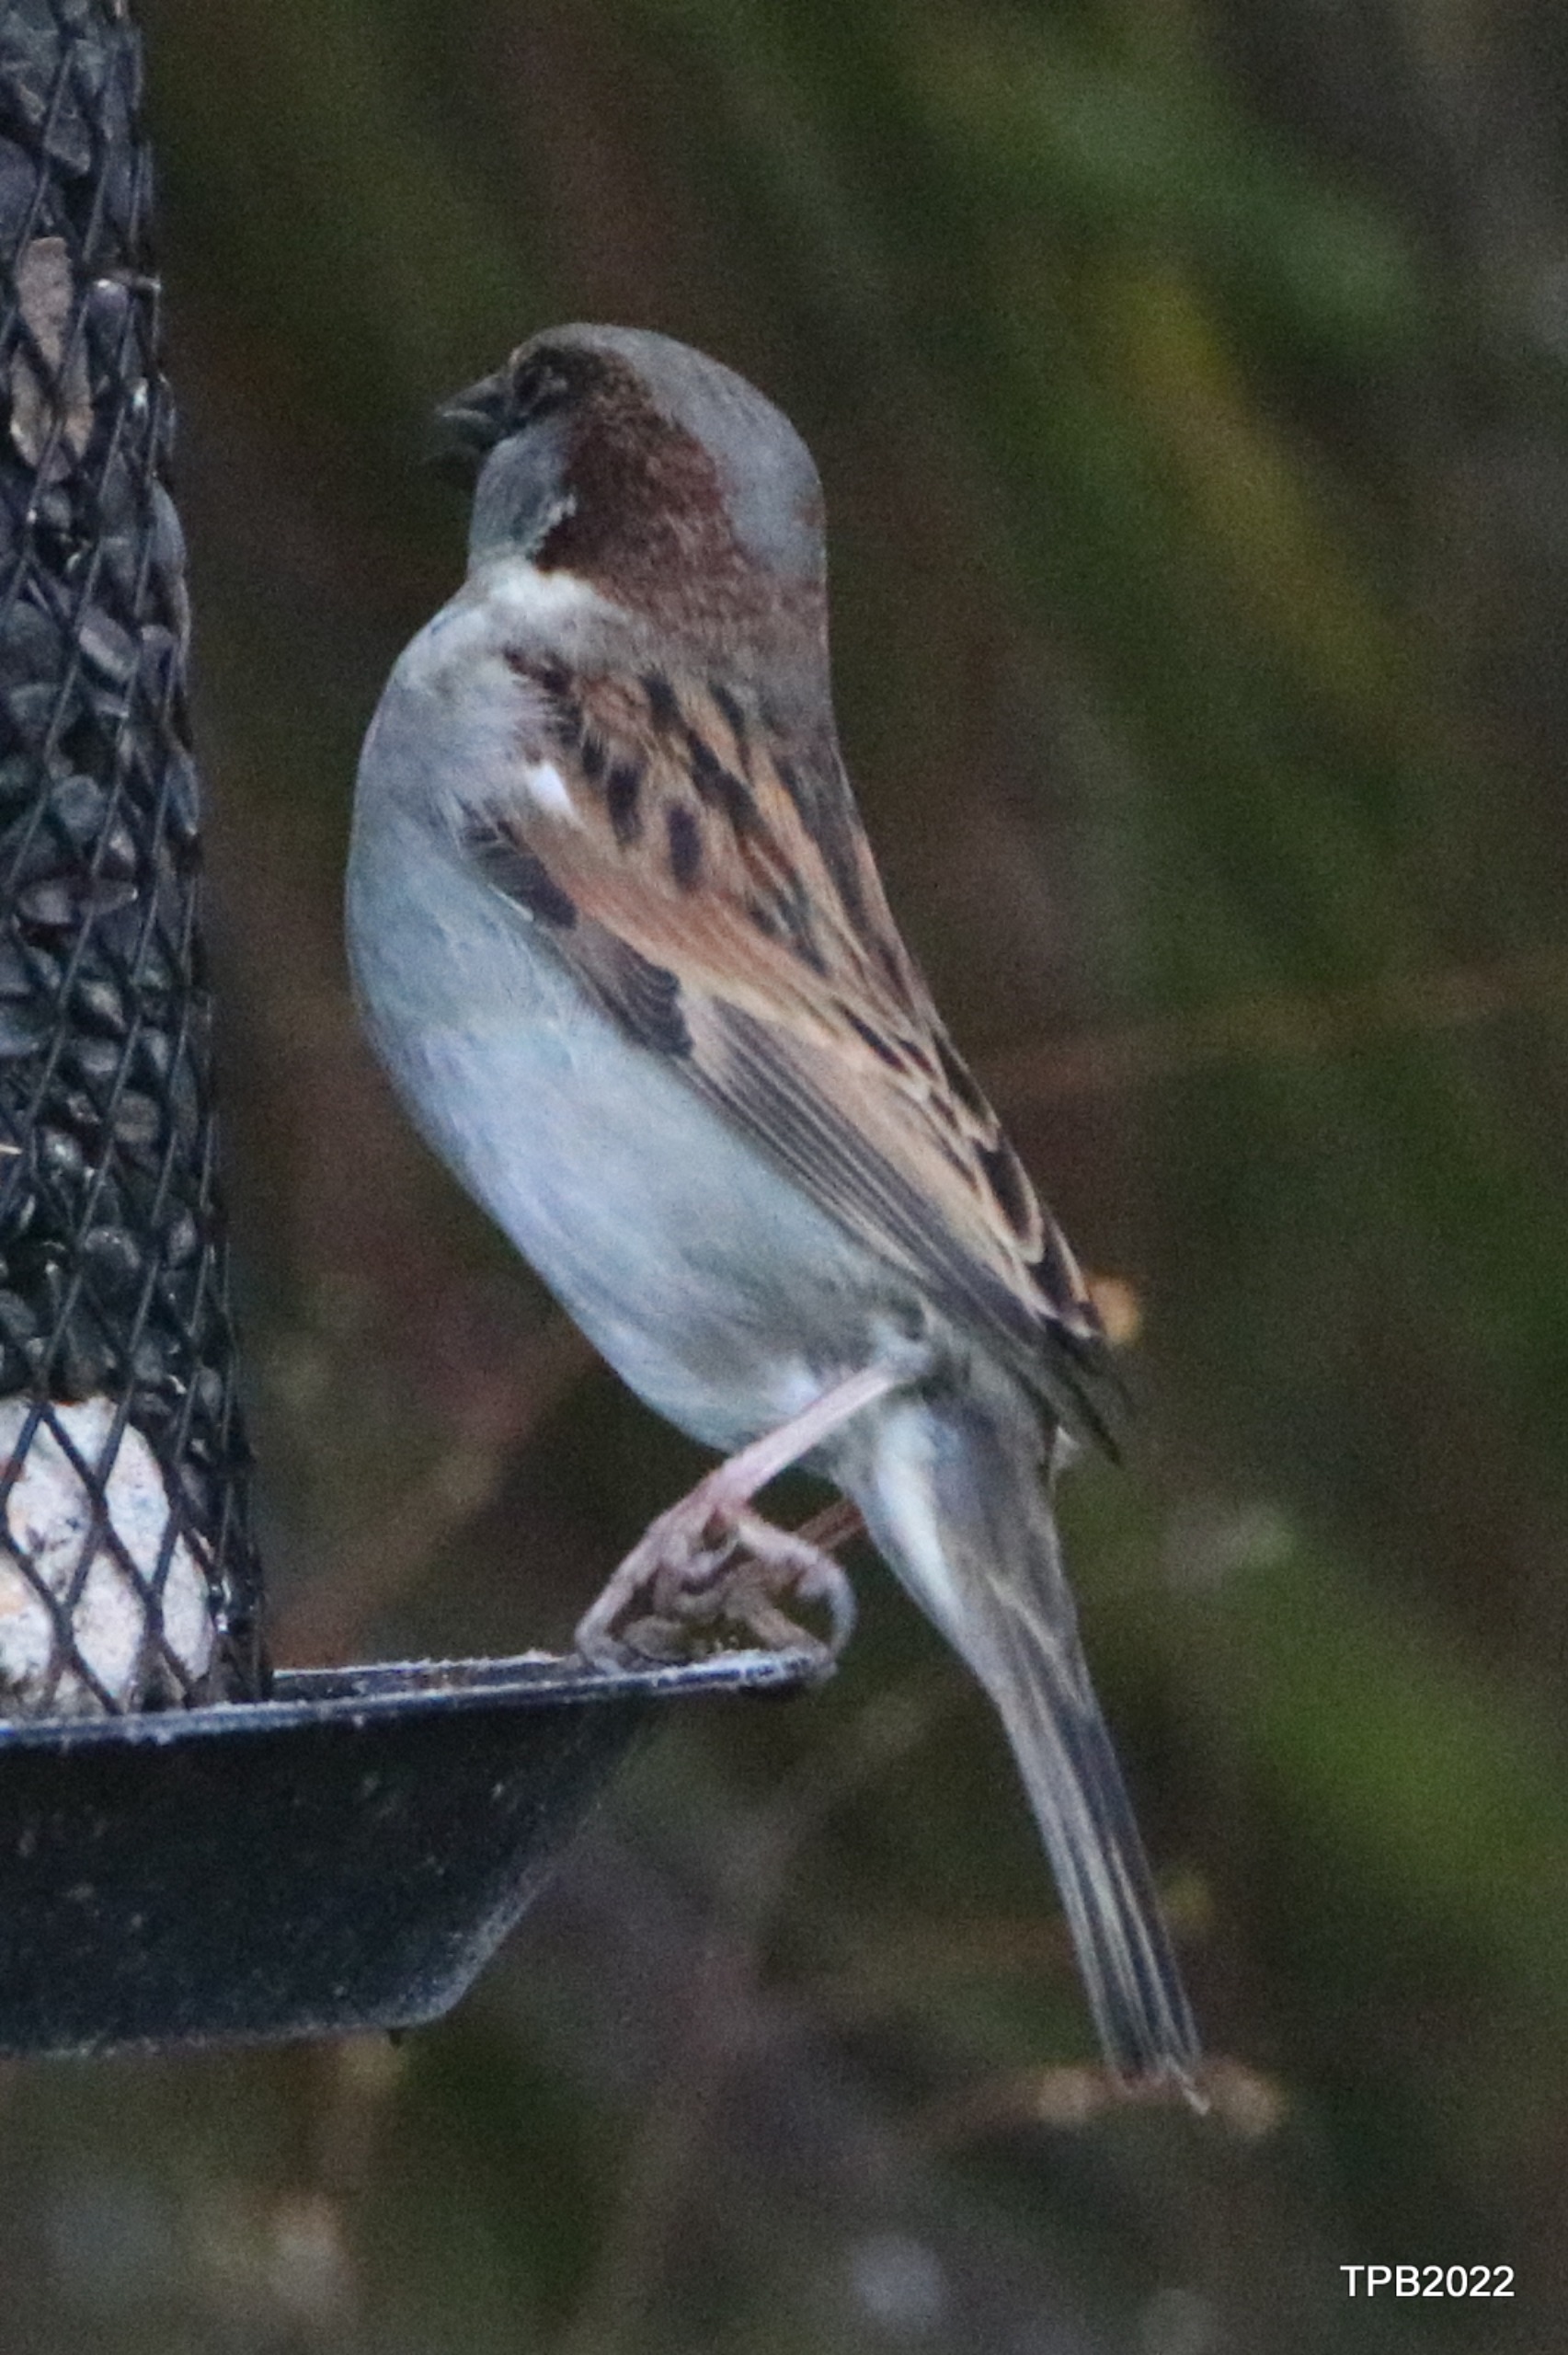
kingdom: Animalia
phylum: Chordata
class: Aves
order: Passeriformes
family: Passeridae
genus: Passer
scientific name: Passer domesticus
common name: Gråspurv
